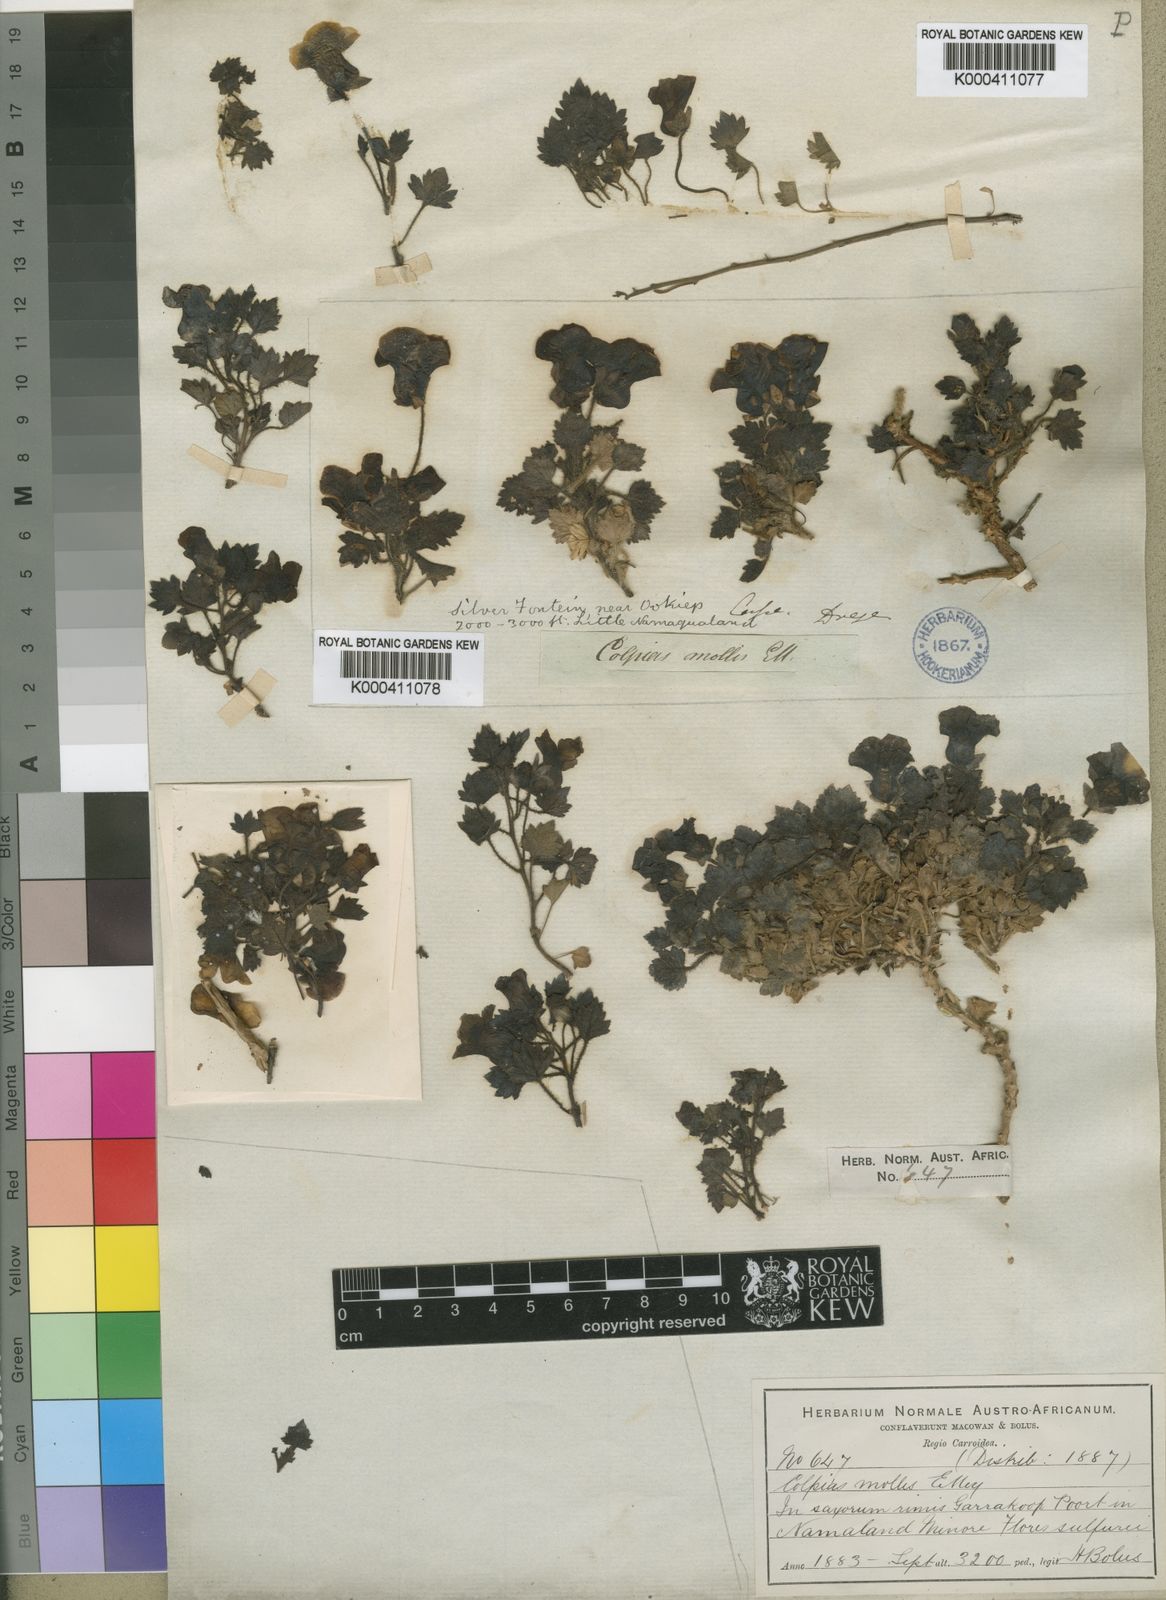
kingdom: Plantae
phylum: Tracheophyta
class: Magnoliopsida
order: Lamiales
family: Scrophulariaceae
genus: Colpias
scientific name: Colpias mollis
